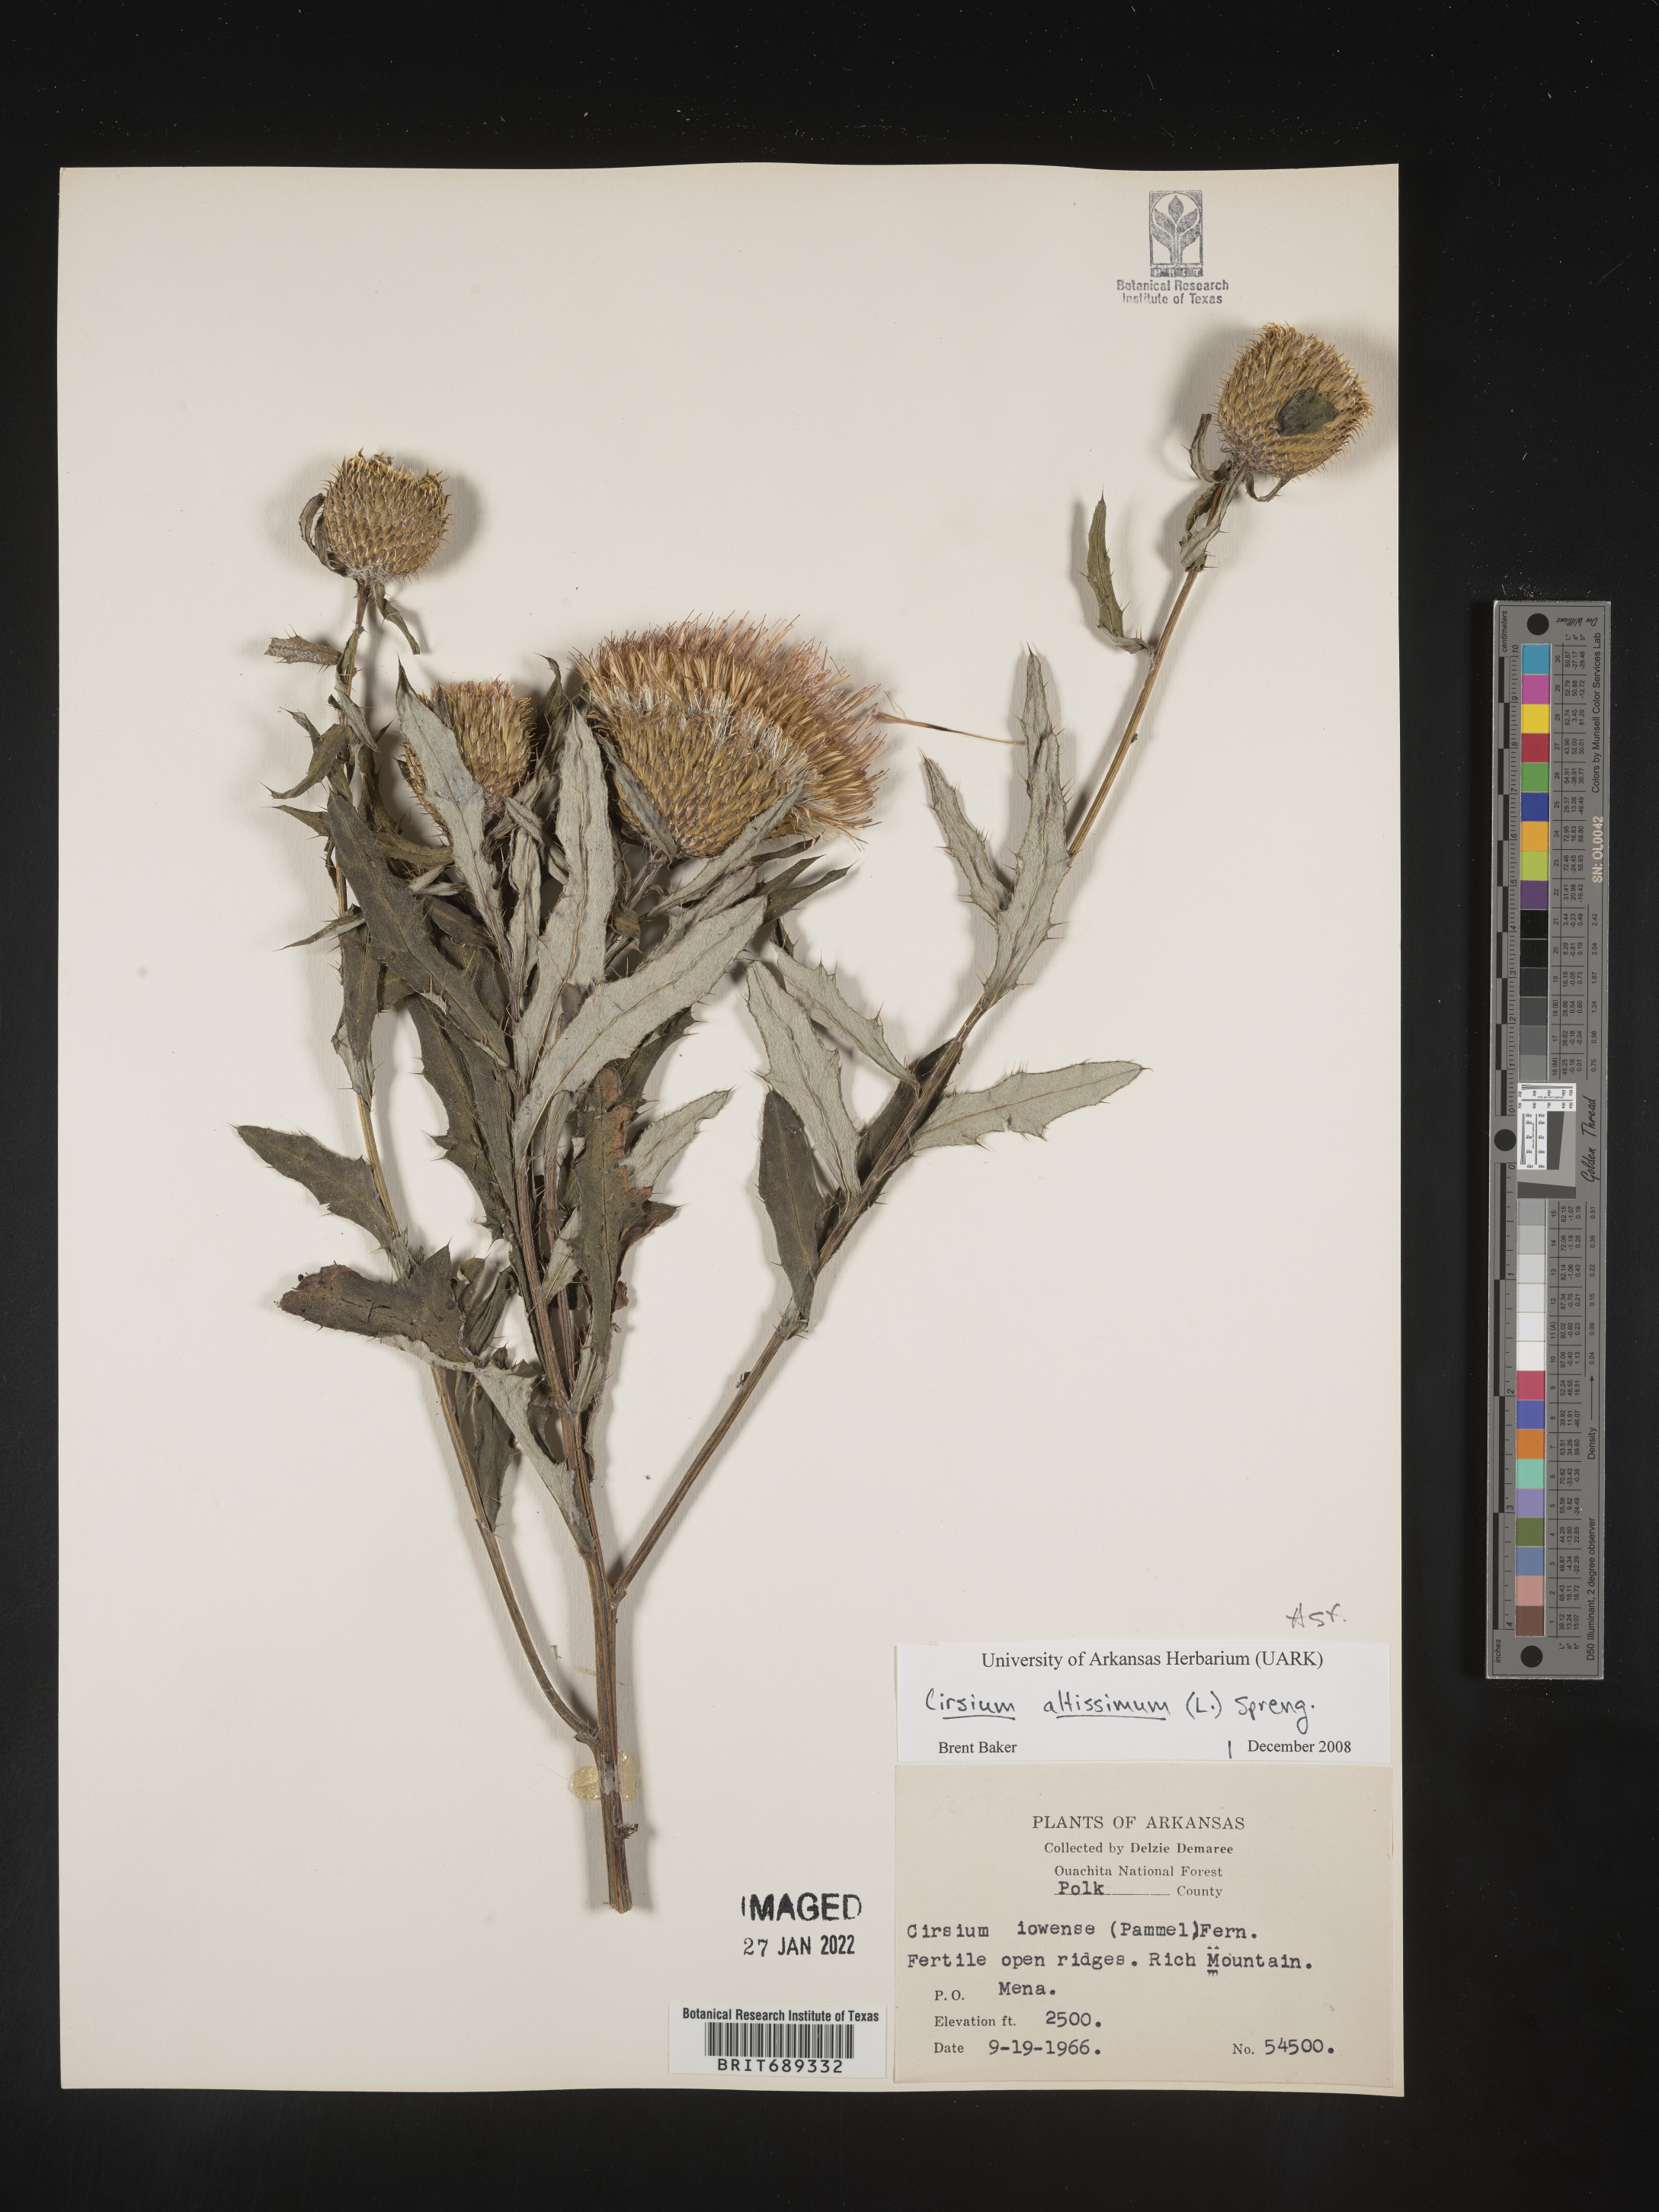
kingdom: Plantae
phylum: Tracheophyta
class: Magnoliopsida
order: Asterales
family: Asteraceae
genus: Cirsium
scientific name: Cirsium altissimum
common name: Roadside thistle
